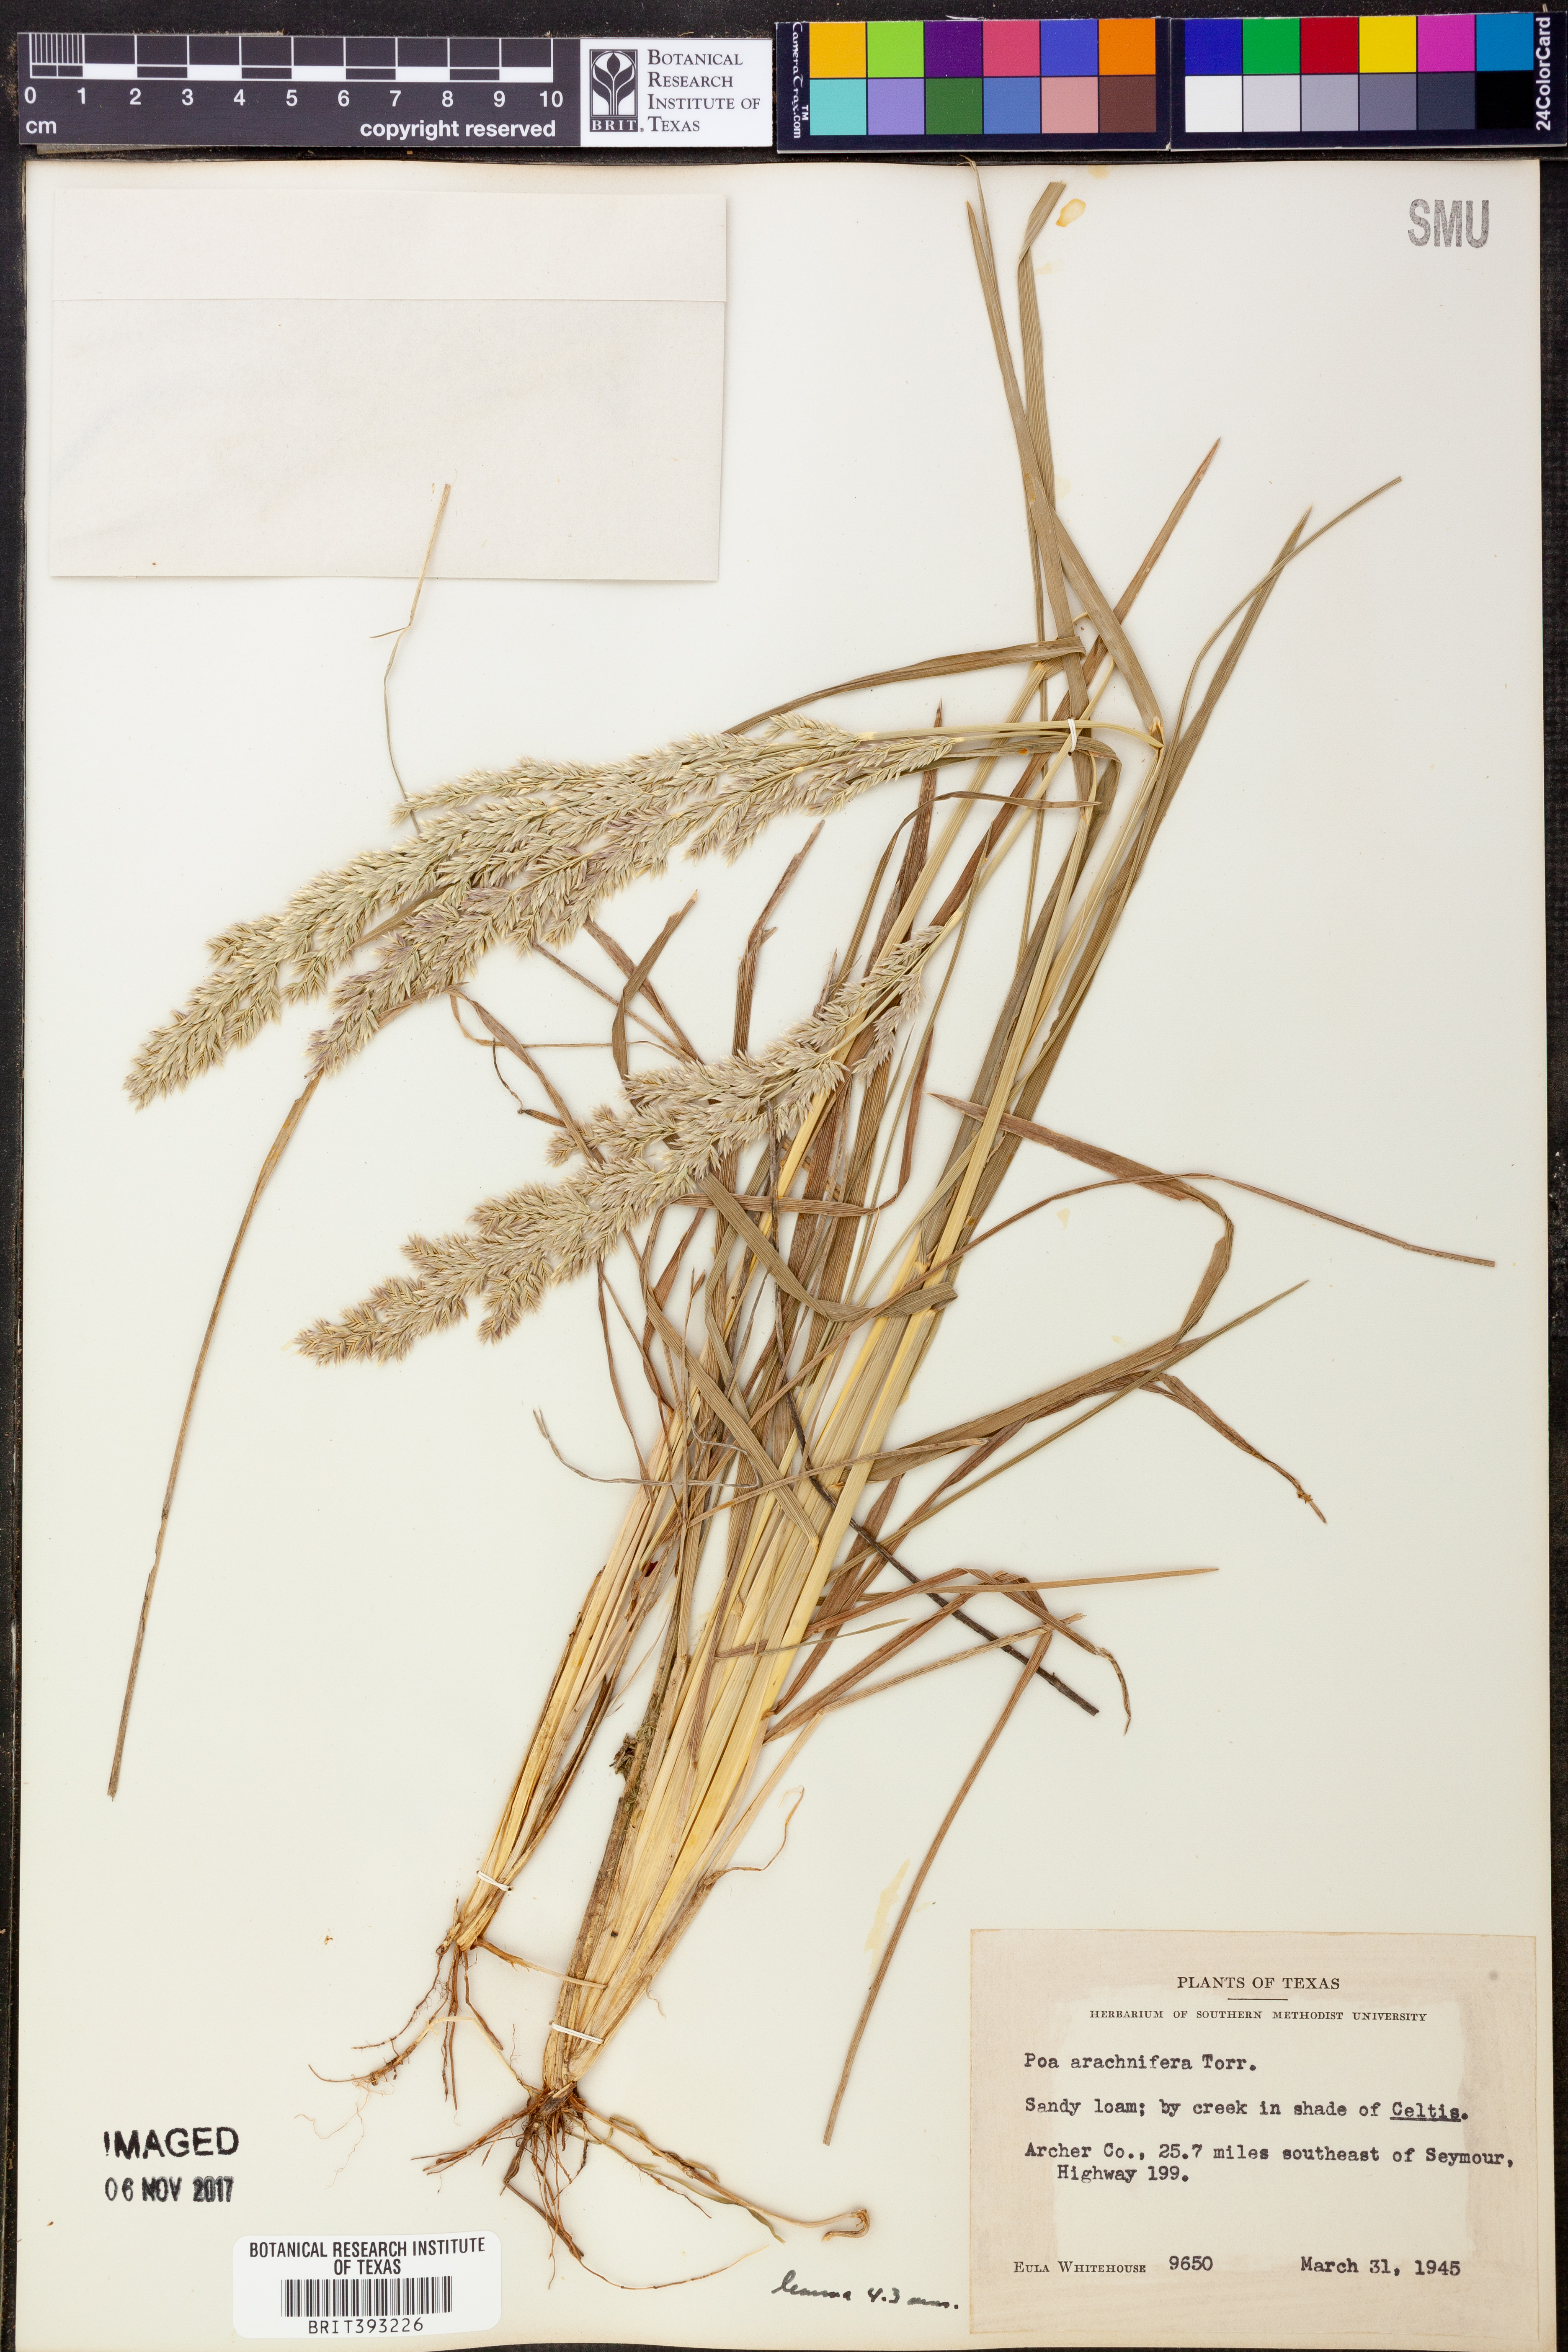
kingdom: Plantae
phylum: Tracheophyta
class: Liliopsida
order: Poales
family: Poaceae
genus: Poa
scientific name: Poa arachnifera
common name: Texas bluegrass
